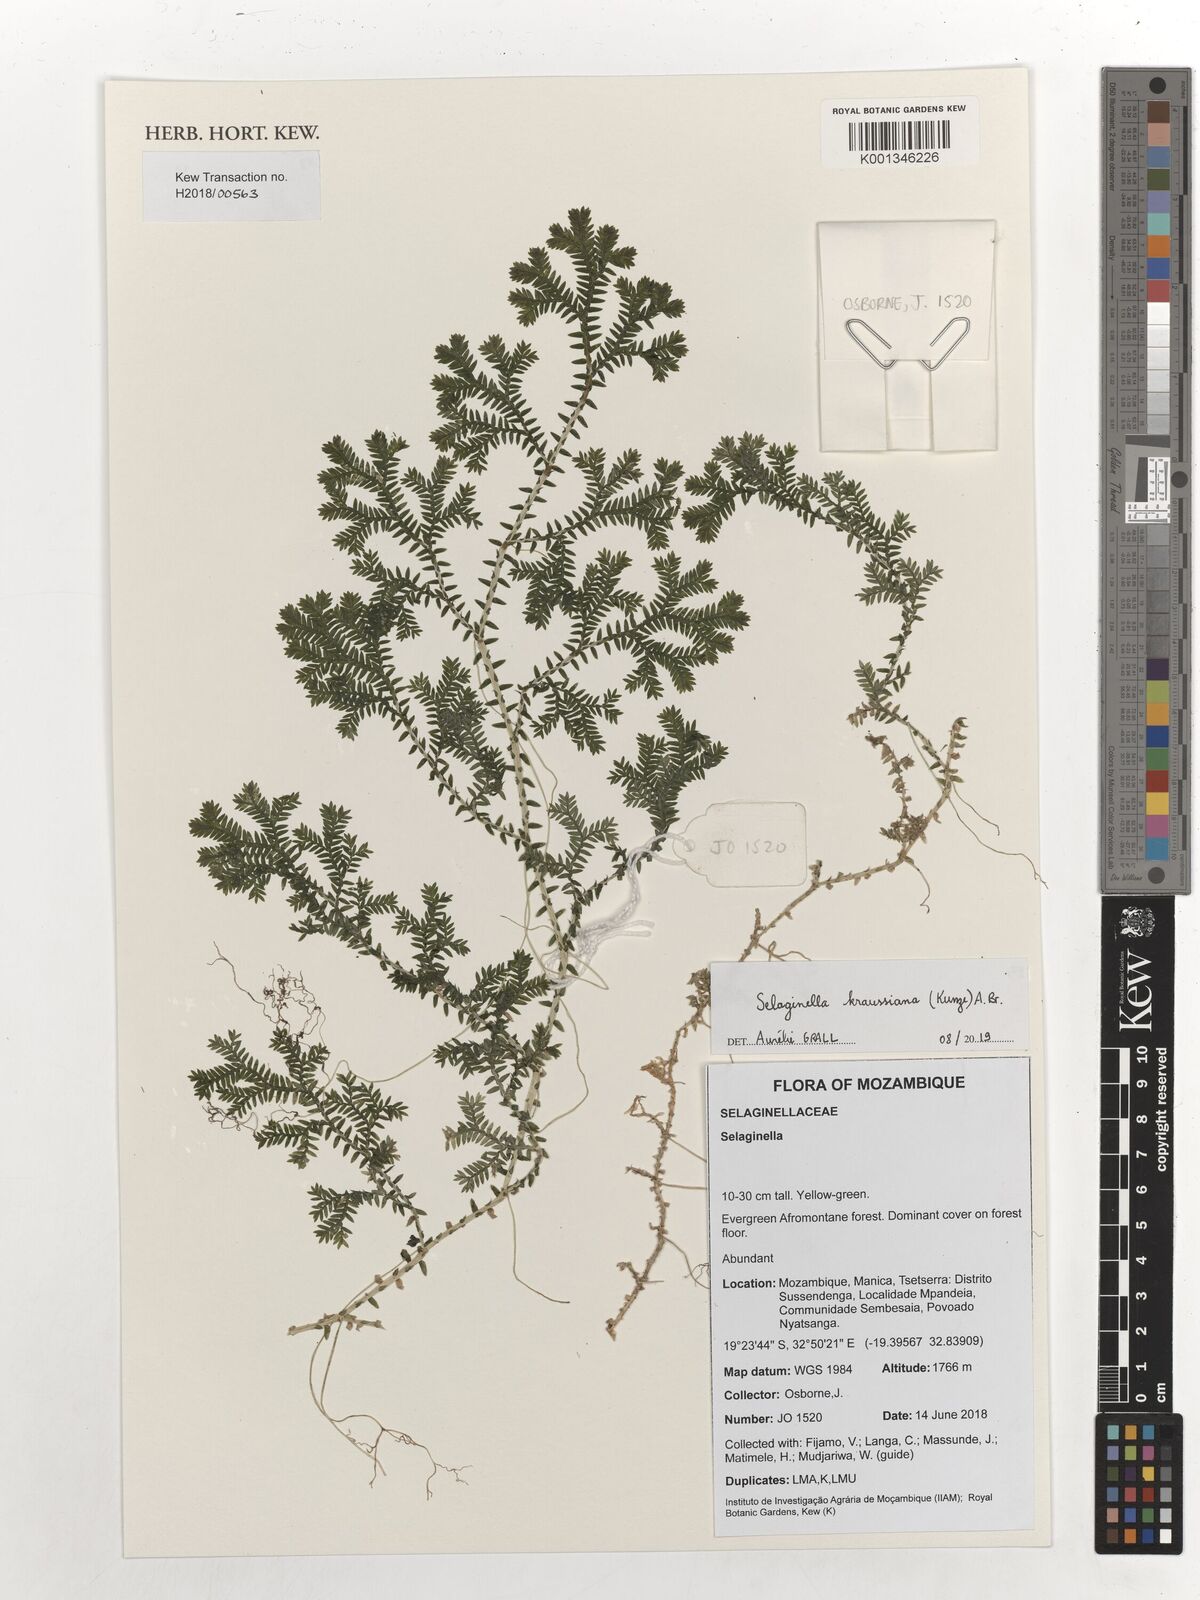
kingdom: Plantae
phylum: Tracheophyta
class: Lycopodiopsida
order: Selaginellales
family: Selaginellaceae
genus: Selaginella
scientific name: Selaginella kraussiana
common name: Krauss' spikemoss
